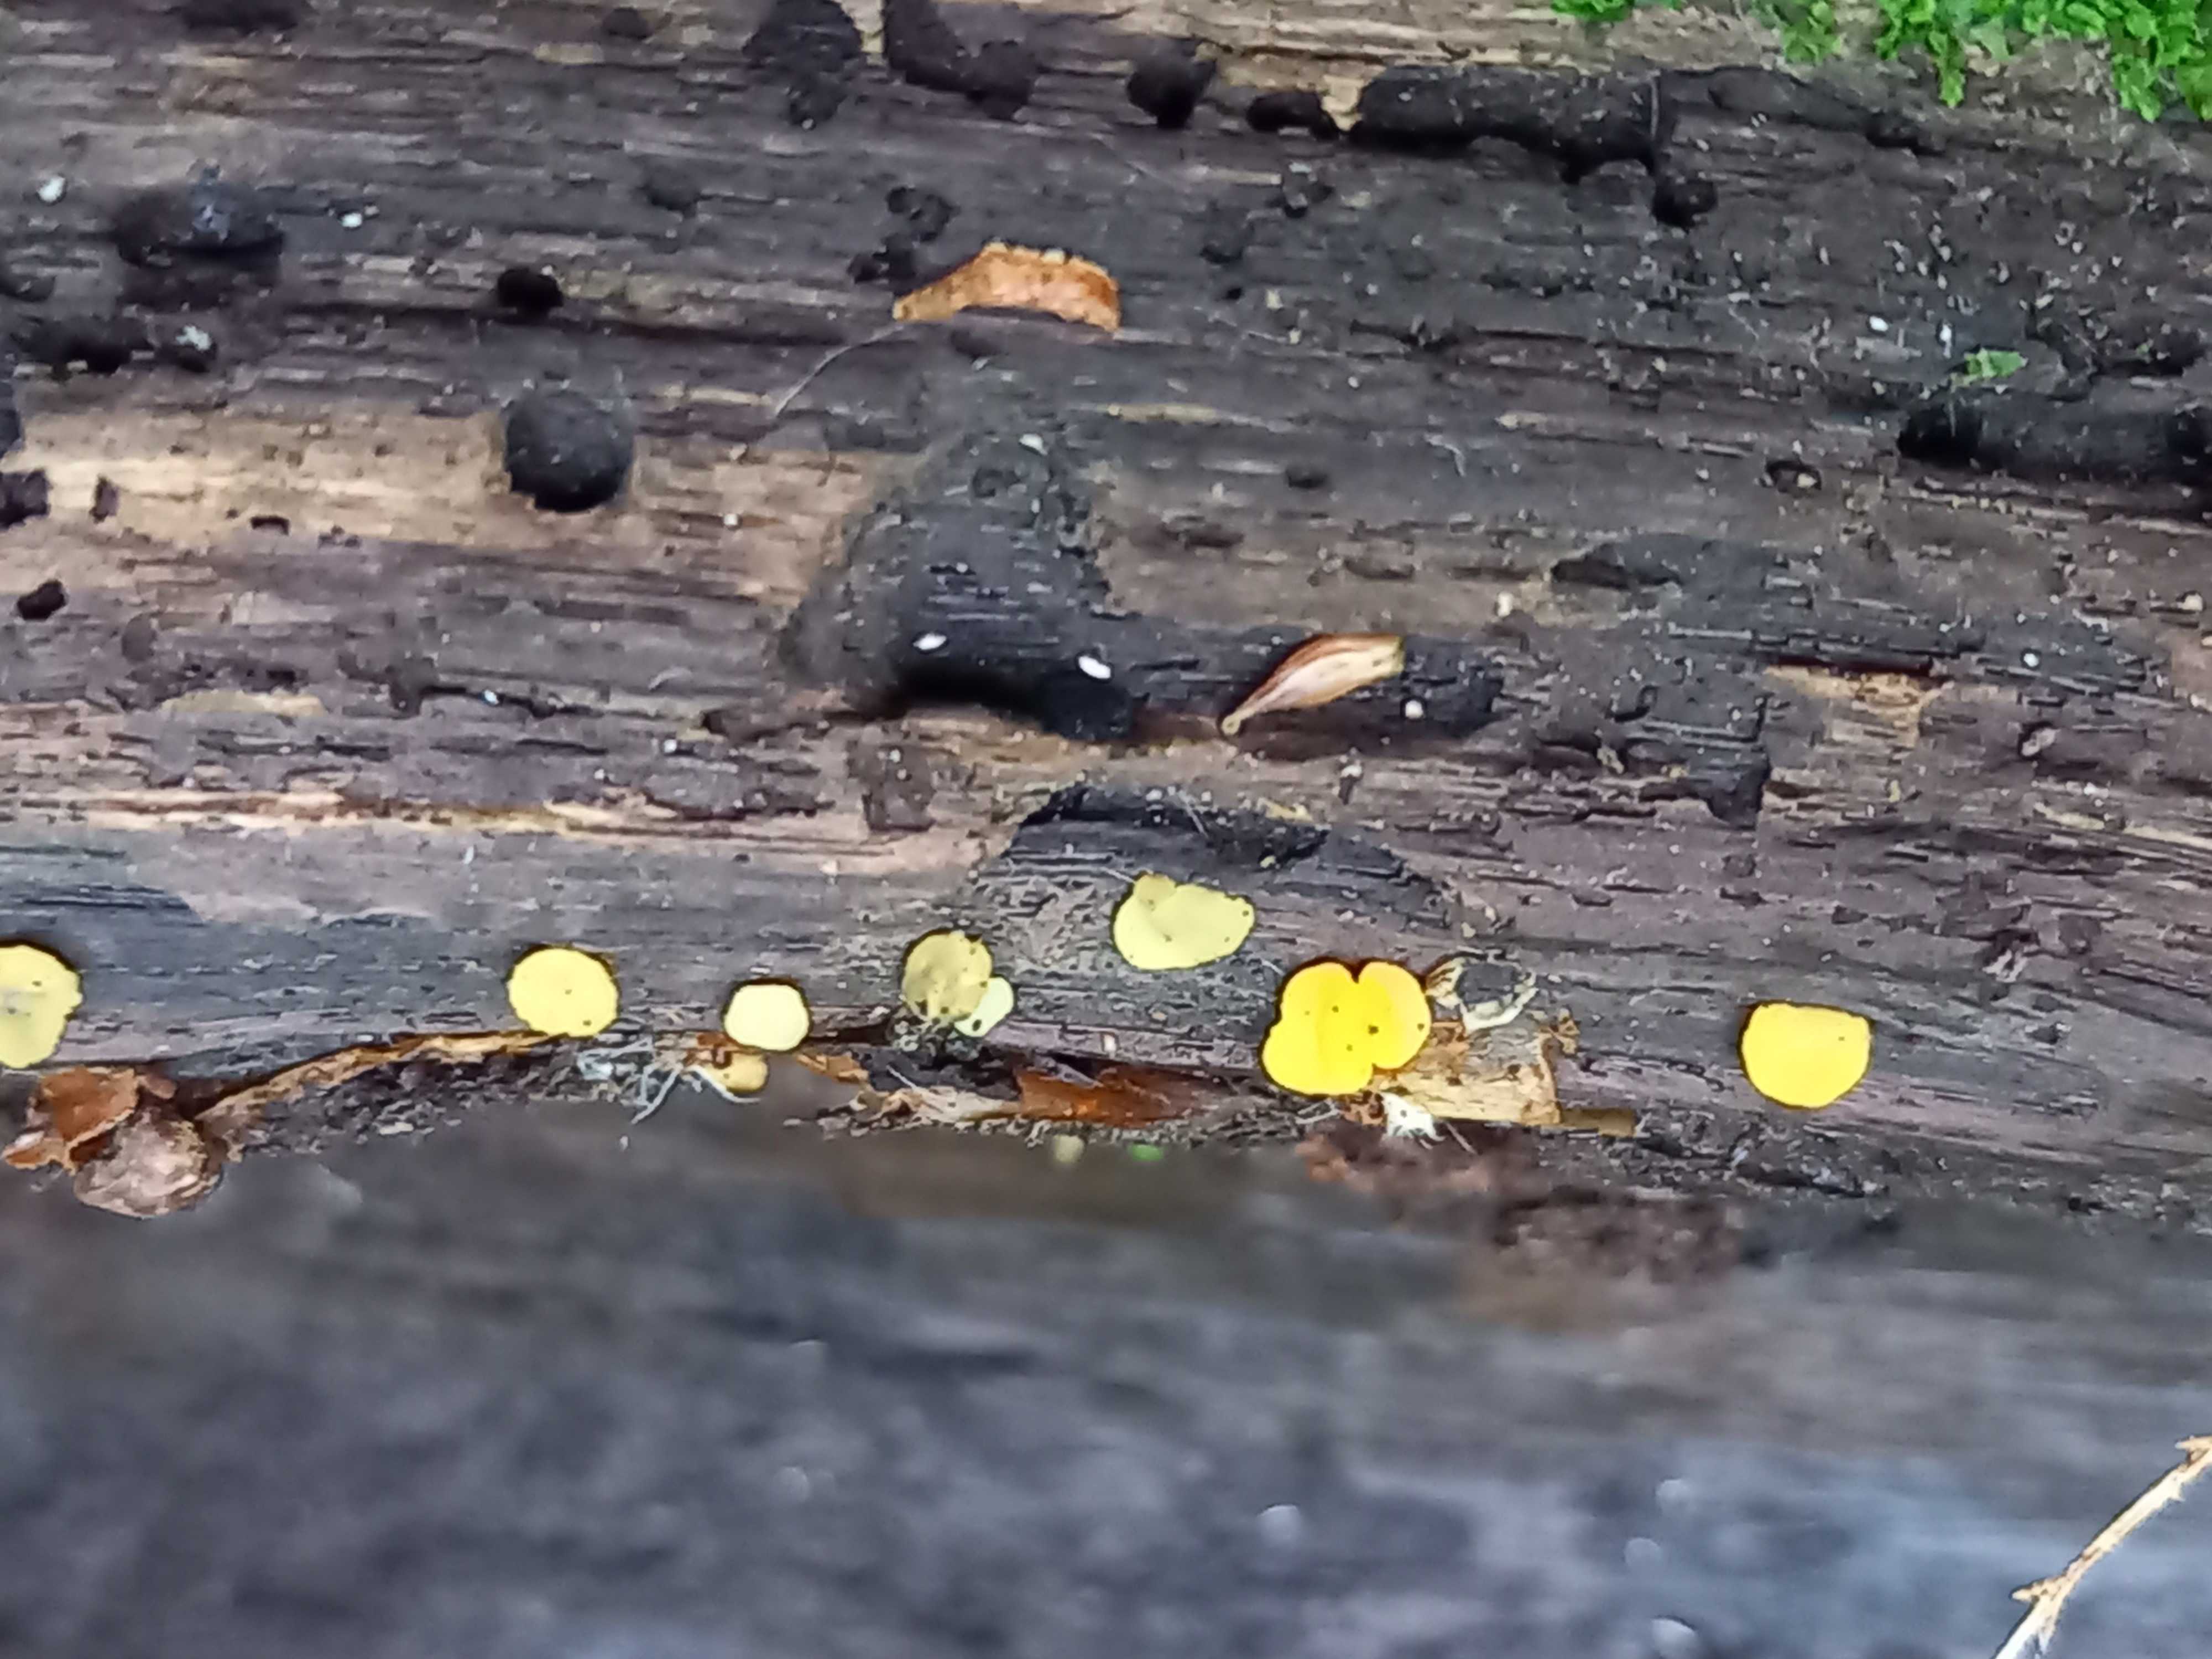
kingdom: Fungi
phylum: Ascomycota
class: Leotiomycetes
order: Helotiales
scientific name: Helotiales
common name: stilkskiveordenen
